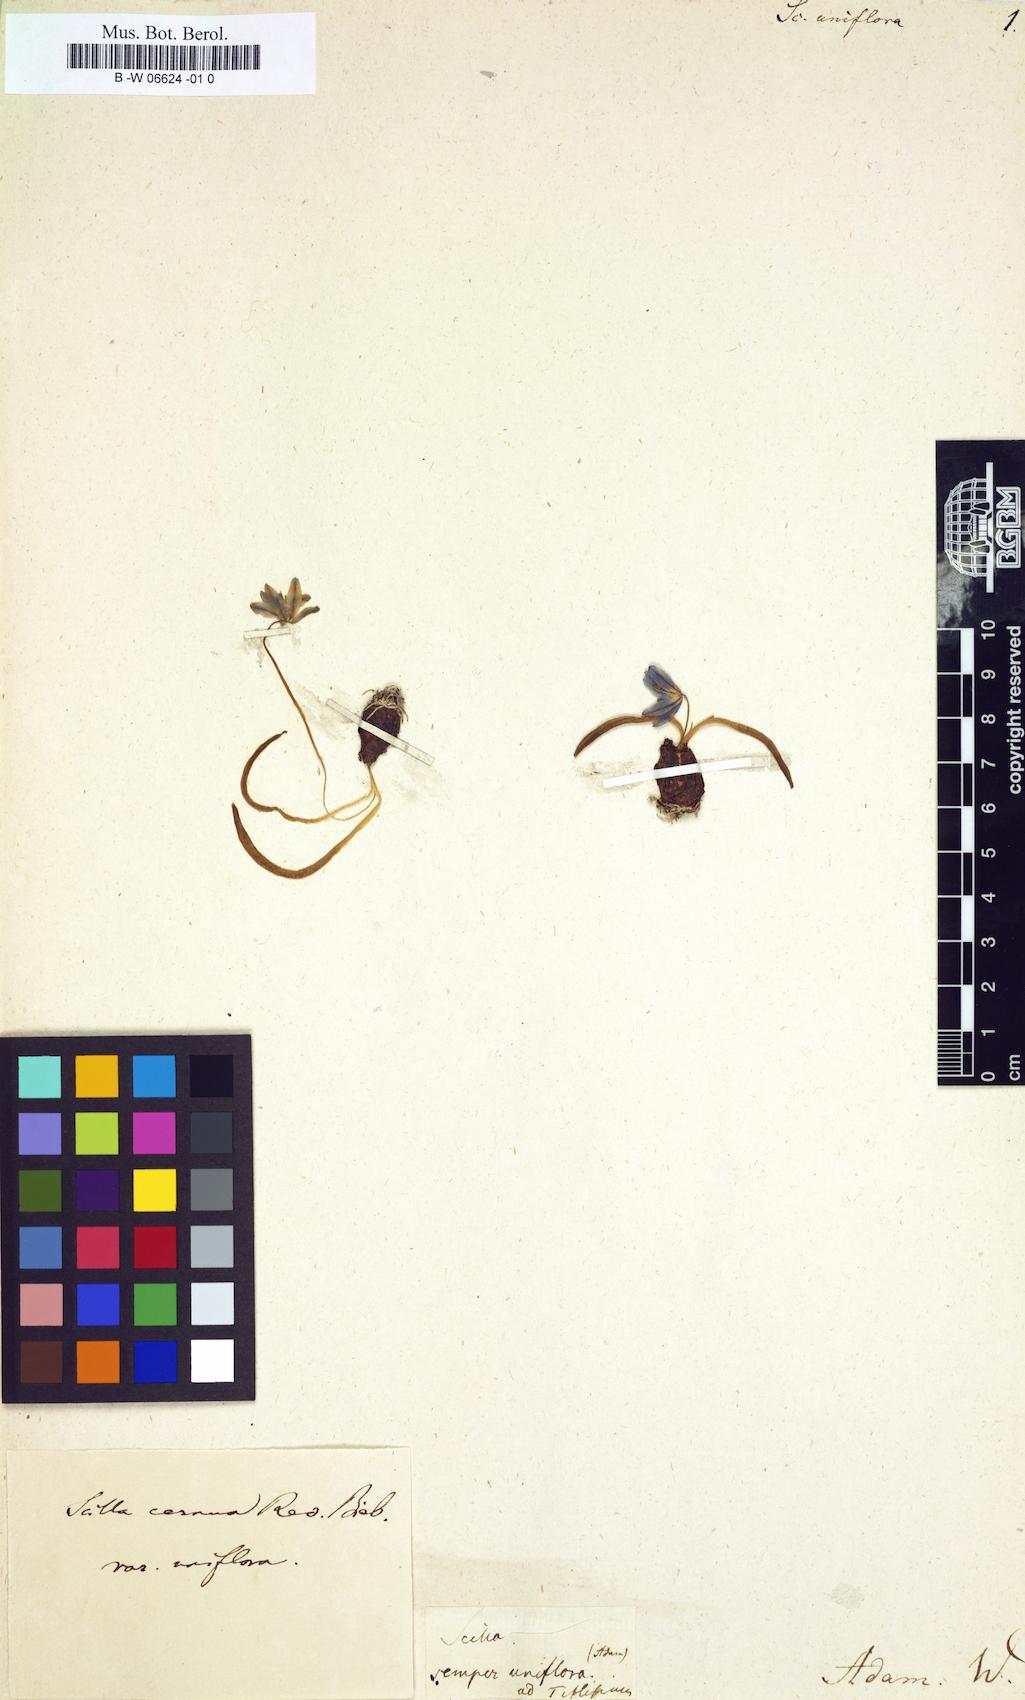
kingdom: Plantae
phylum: Tracheophyta
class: Liliopsida
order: Asparagales
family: Asparagaceae
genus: Scilla
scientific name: Scilla siberica
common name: Siberian squill
